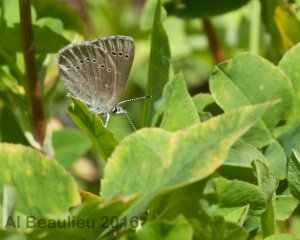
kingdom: Animalia
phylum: Arthropoda
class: Insecta
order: Lepidoptera
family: Lycaenidae
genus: Glaucopsyche
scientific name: Glaucopsyche lygdamus
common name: Silvery Blue
